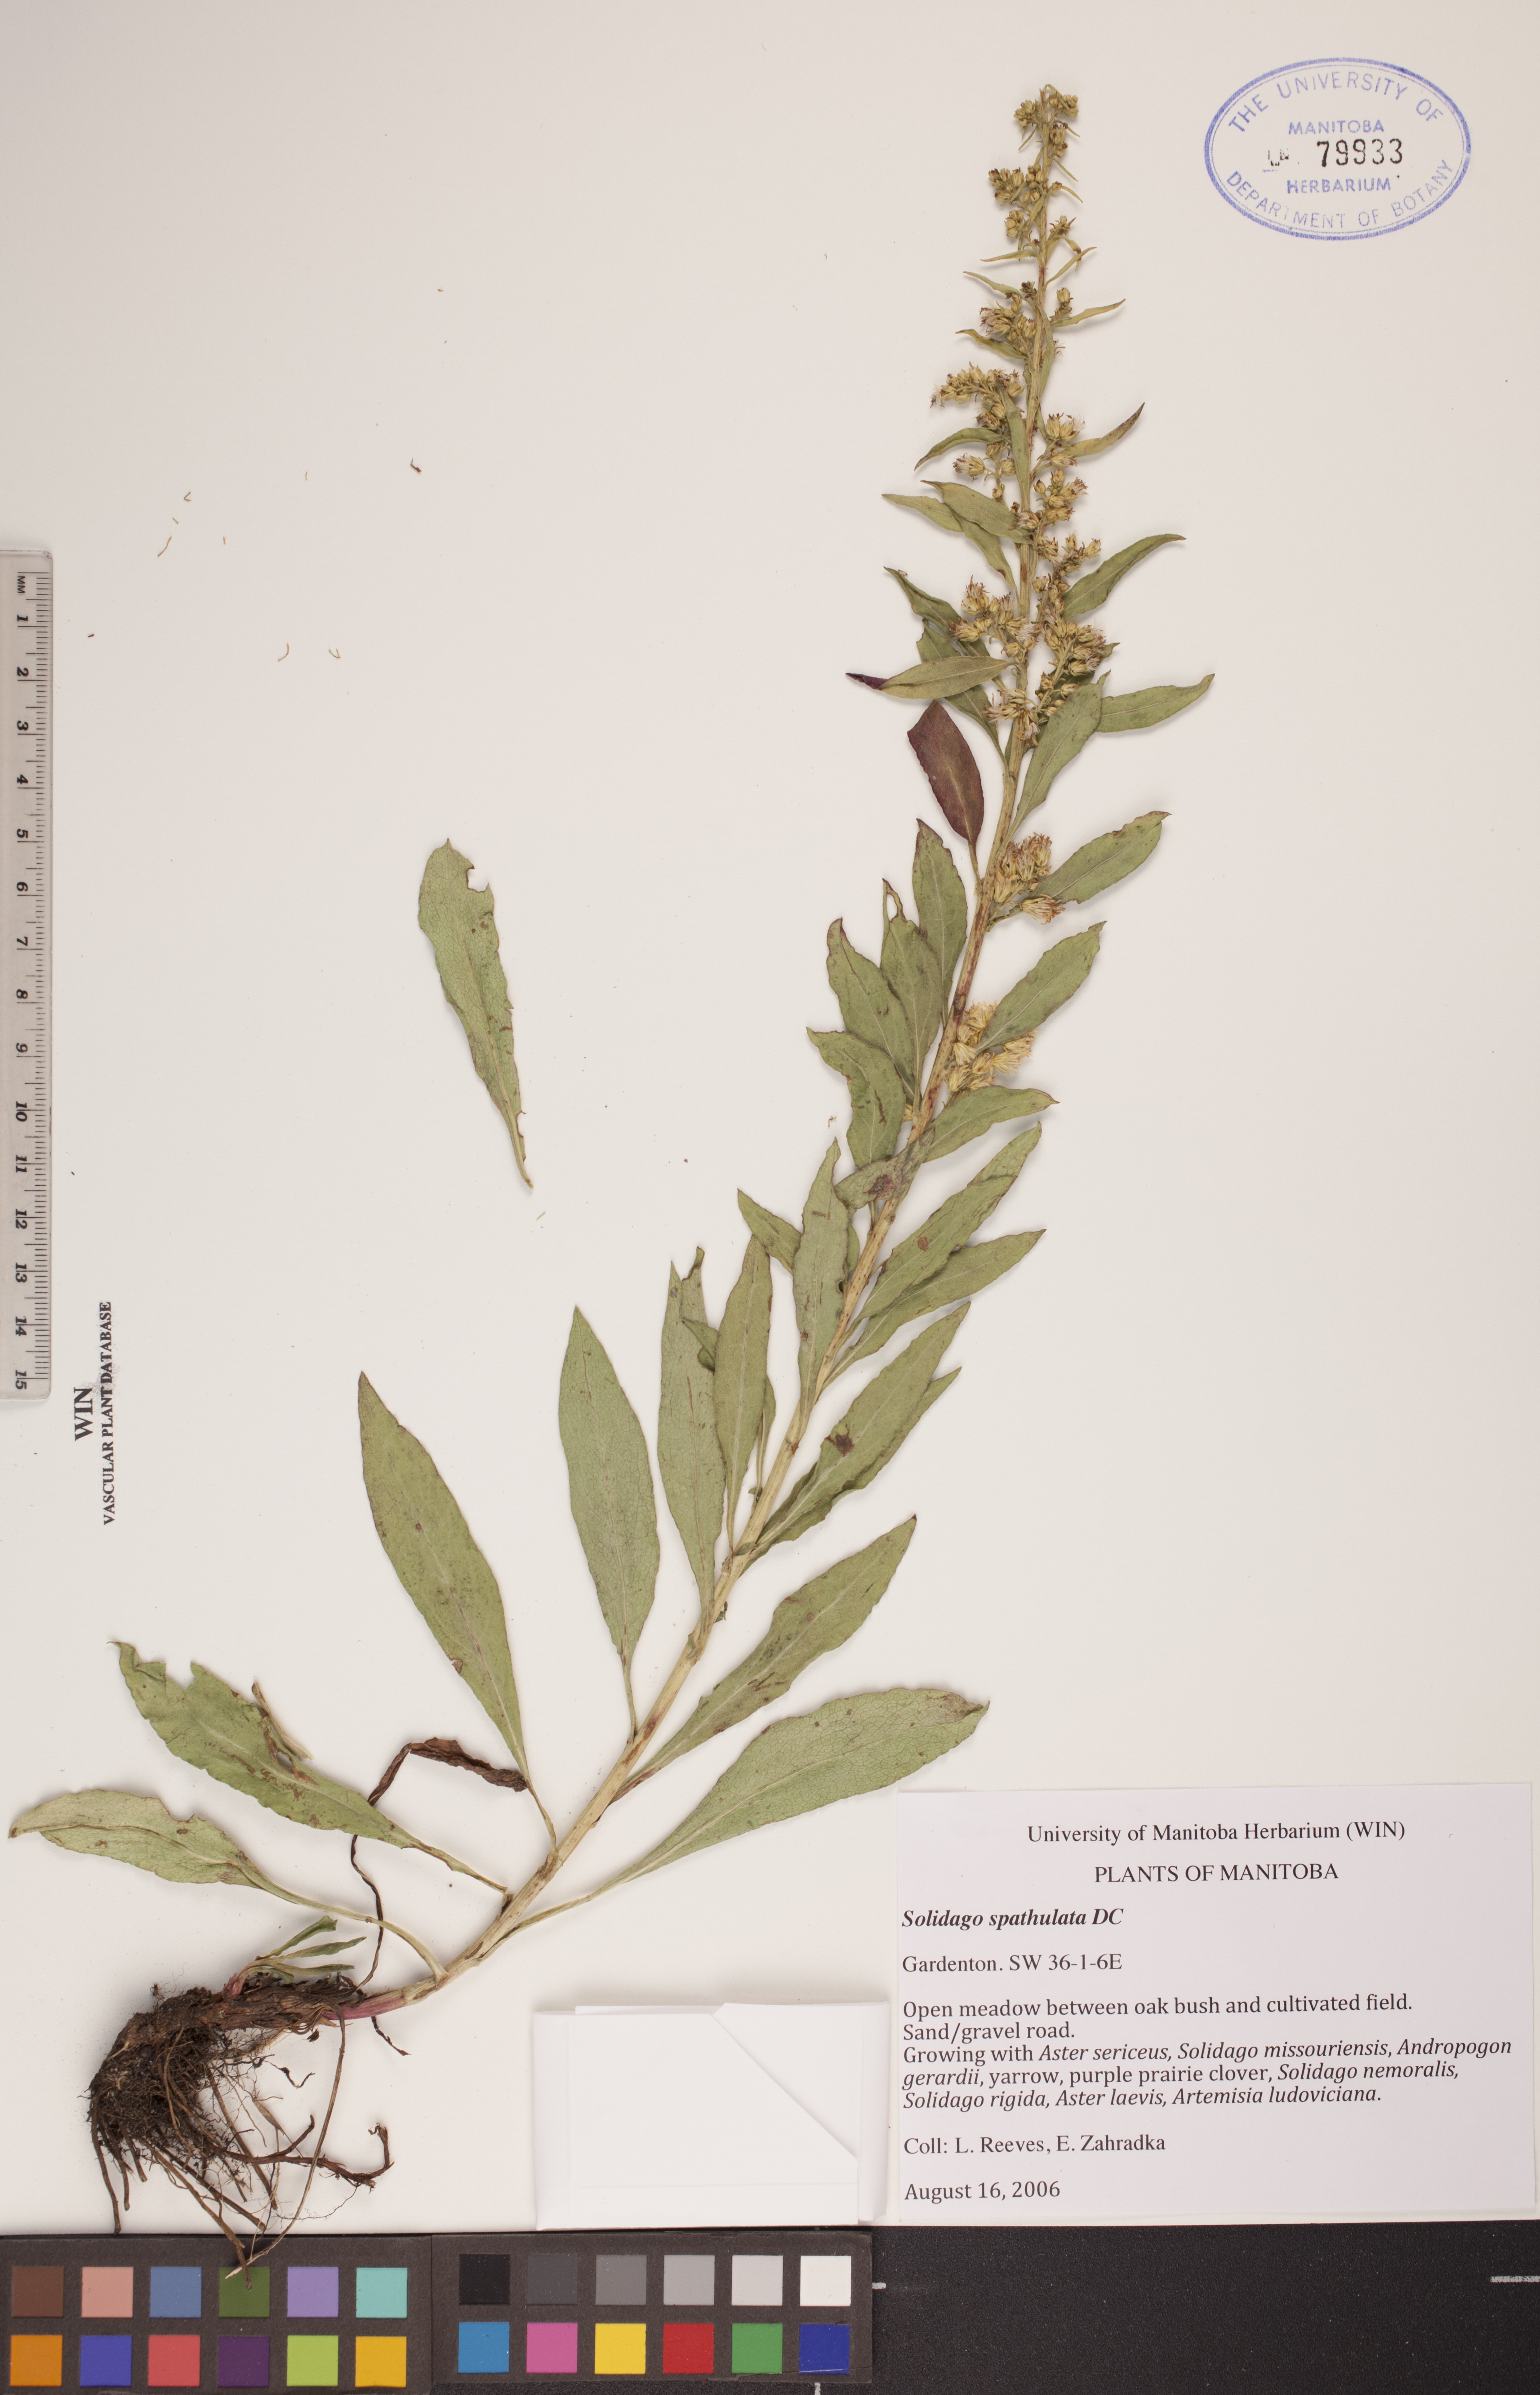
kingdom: Plantae
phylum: Tracheophyta
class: Magnoliopsida
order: Asterales
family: Asteraceae
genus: Solidago
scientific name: Solidago spathulata
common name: Coast goldenrod
